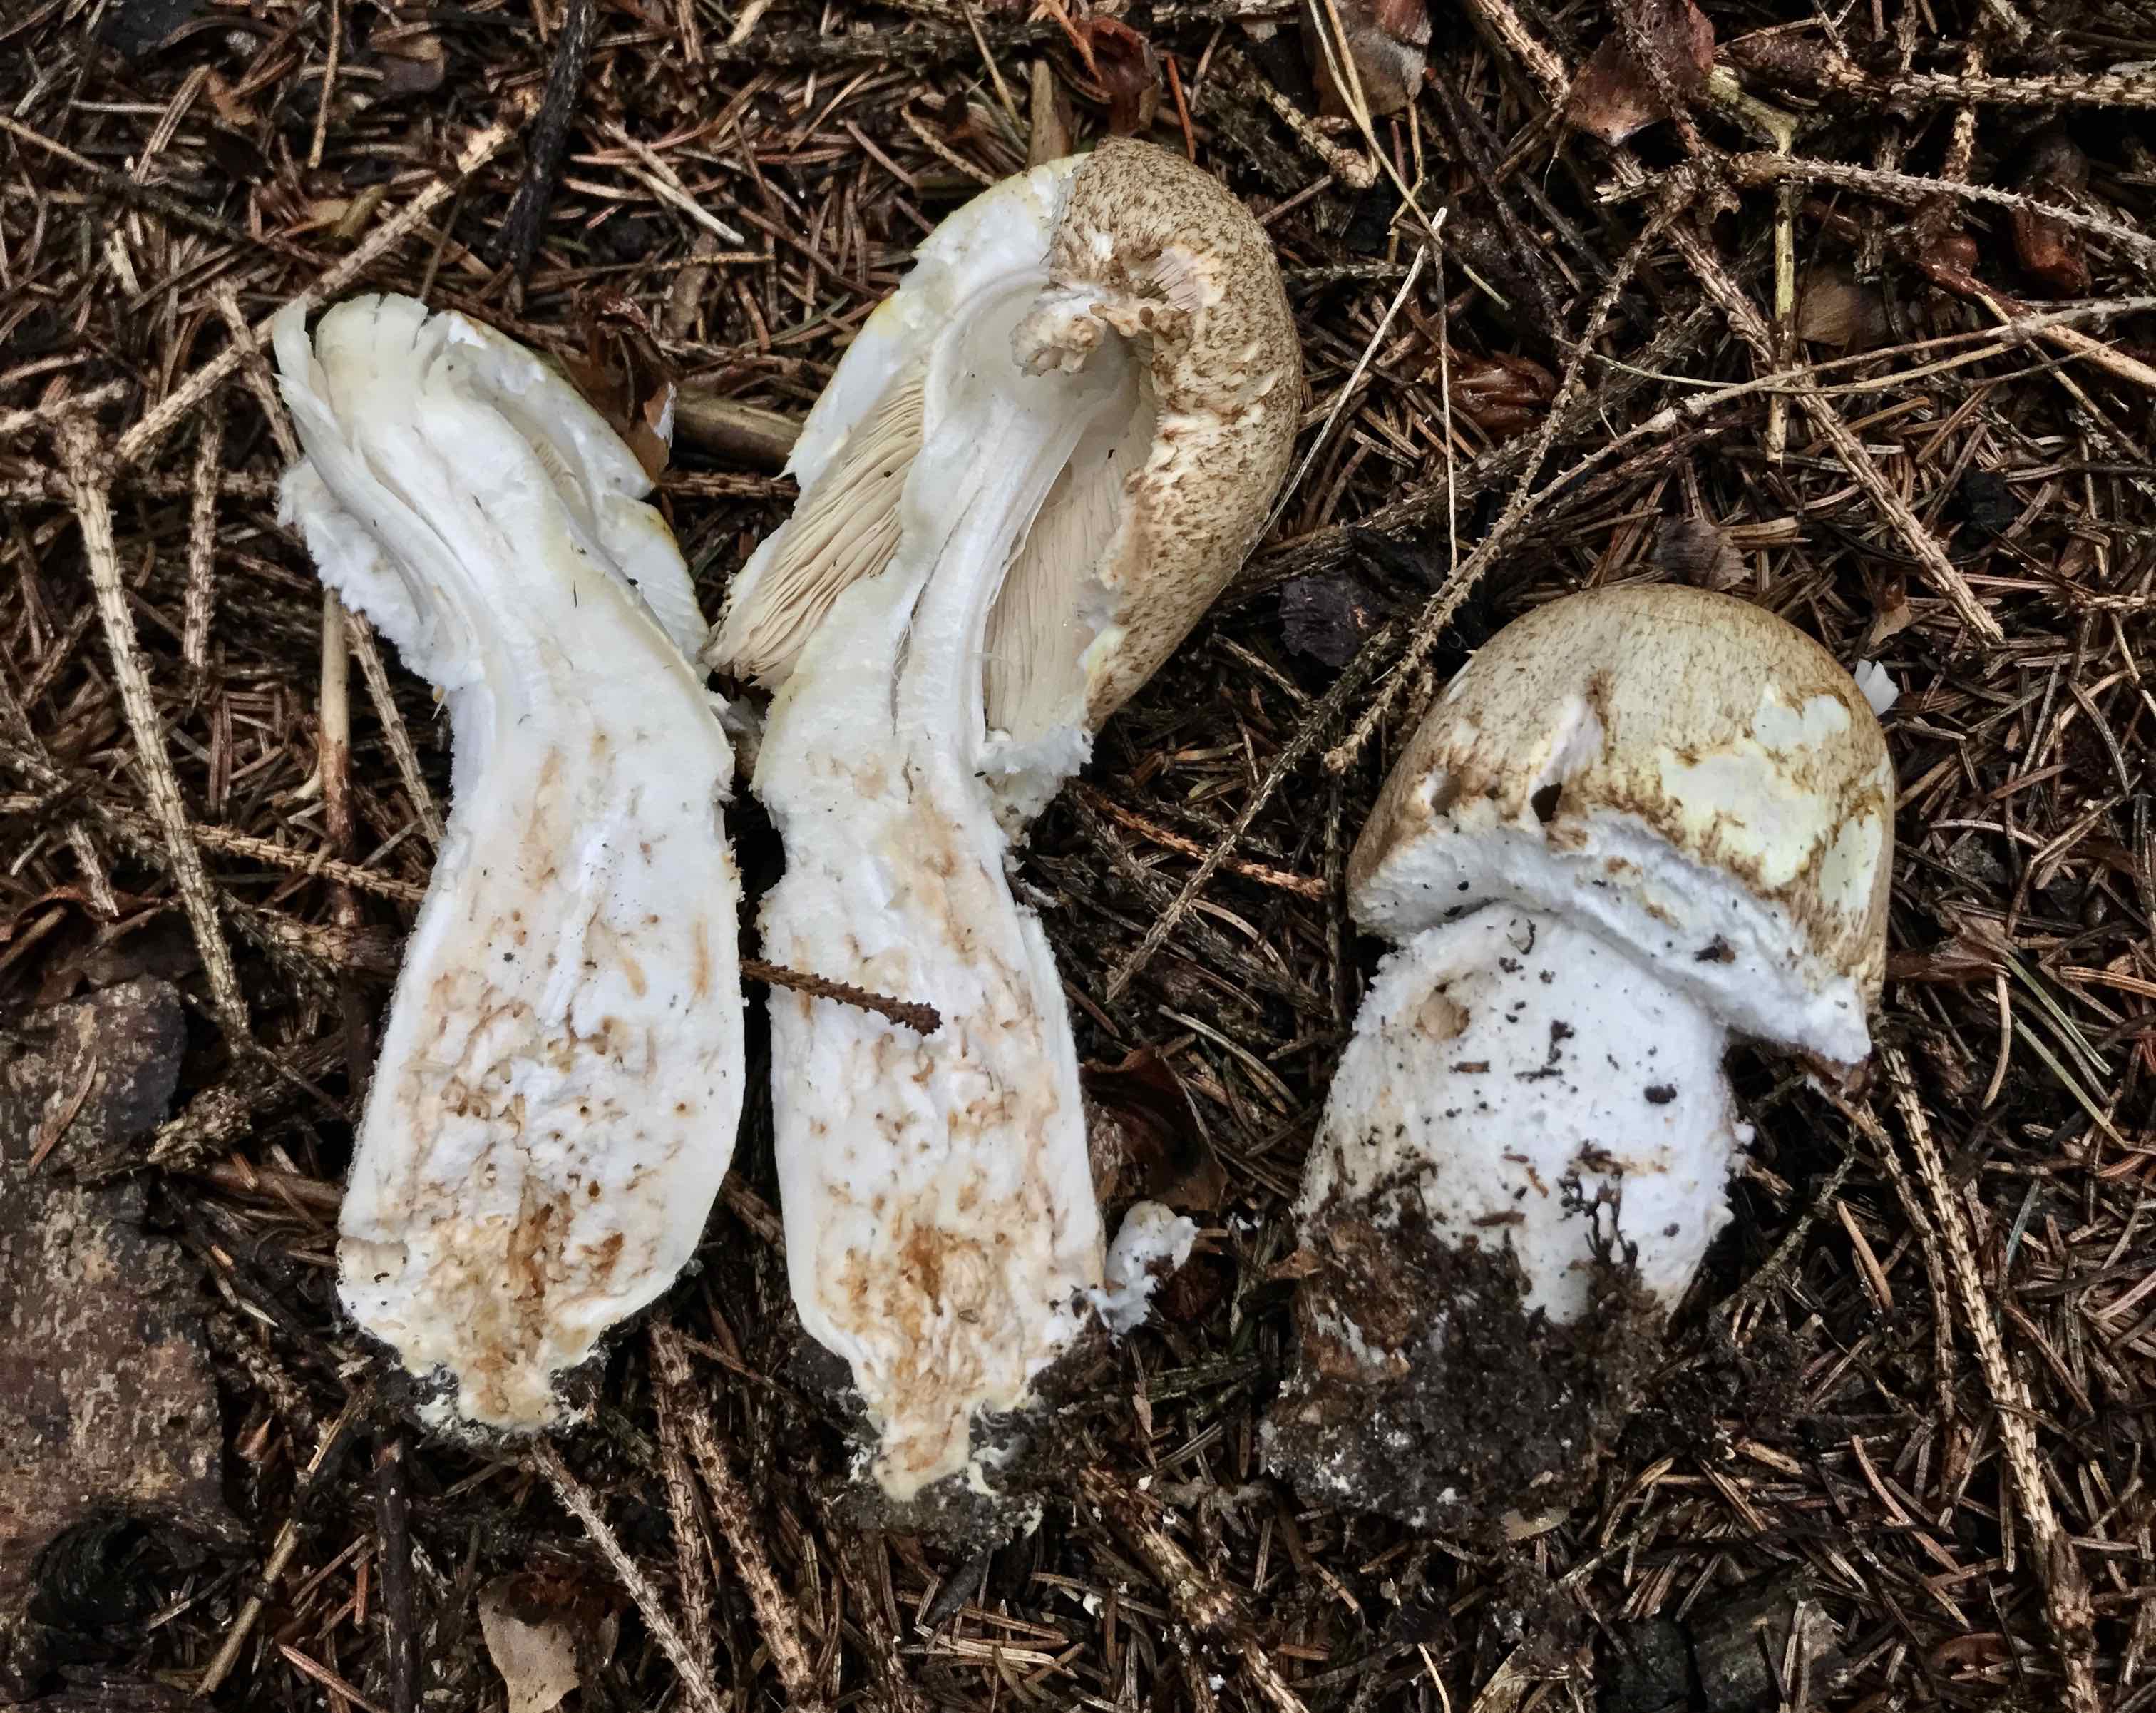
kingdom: Fungi
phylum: Basidiomycota
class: Agaricomycetes
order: Agaricales
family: Agaricaceae
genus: Agaricus
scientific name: Agaricus augustus
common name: prægtig champignon
